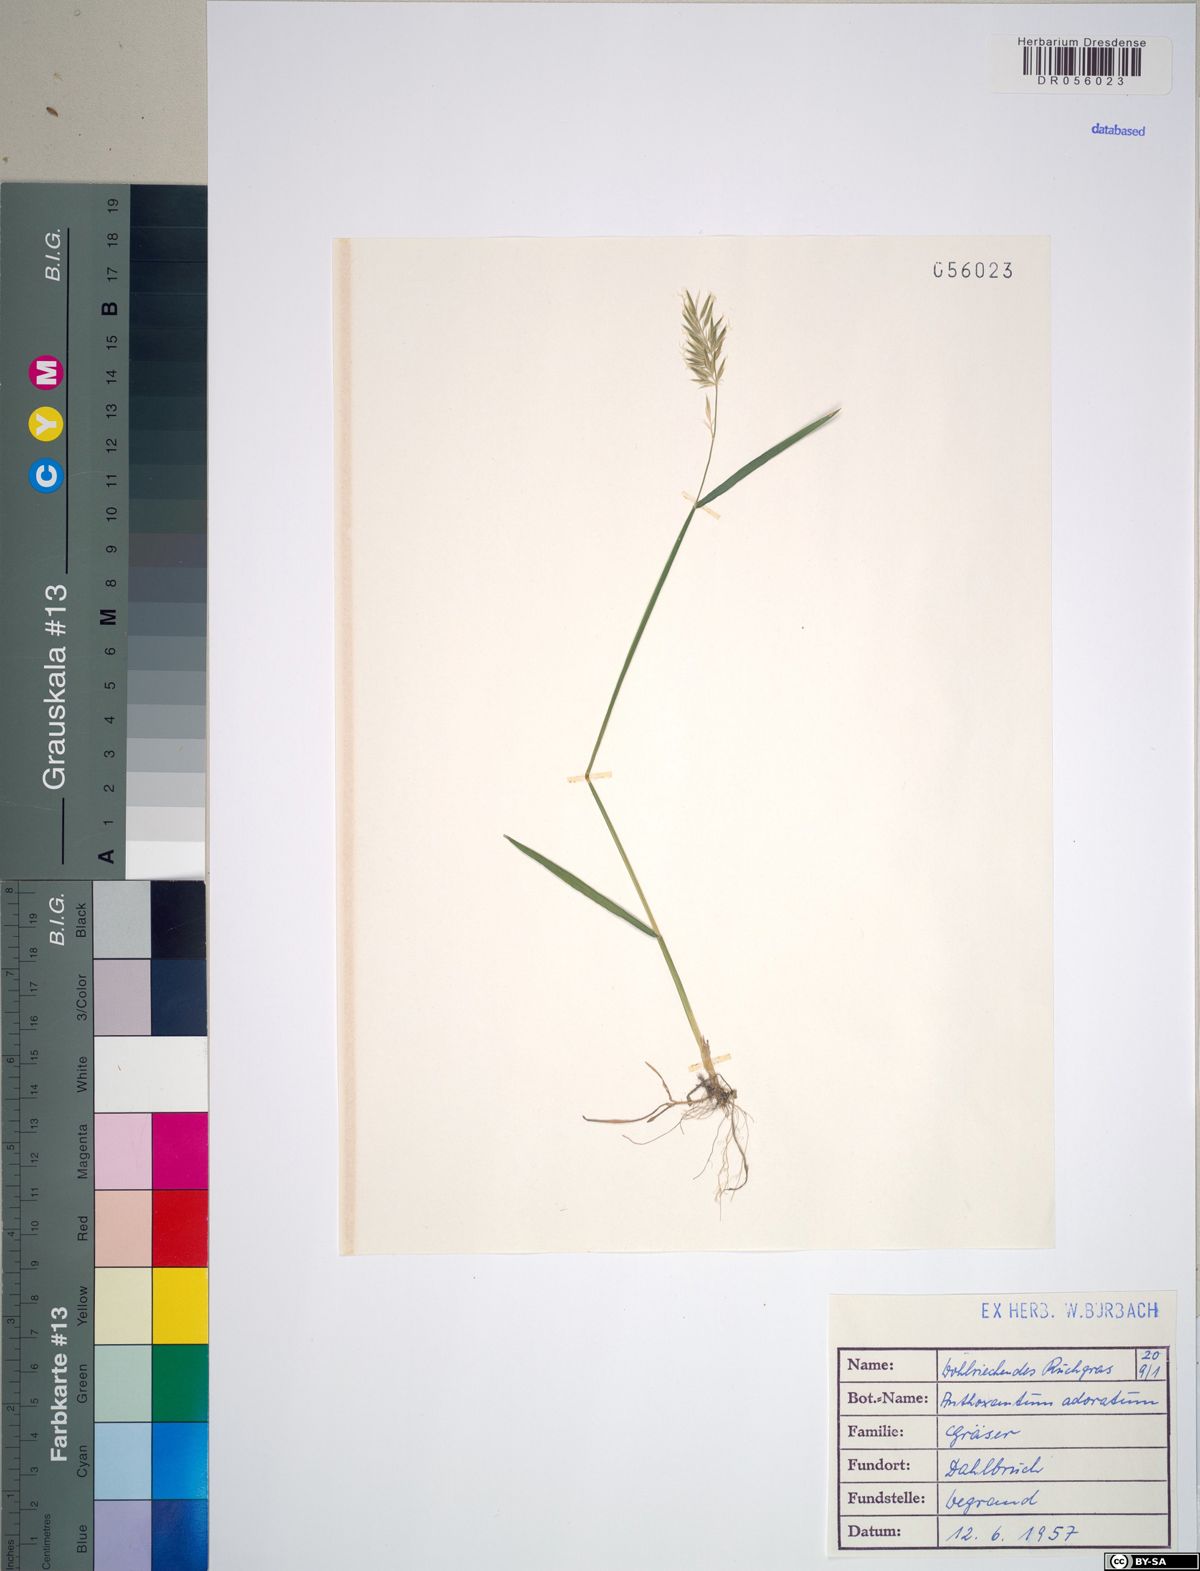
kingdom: Plantae
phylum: Tracheophyta
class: Liliopsida
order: Poales
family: Poaceae
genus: Anthoxanthum
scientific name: Anthoxanthum odoratum
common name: Sweet vernalgrass
